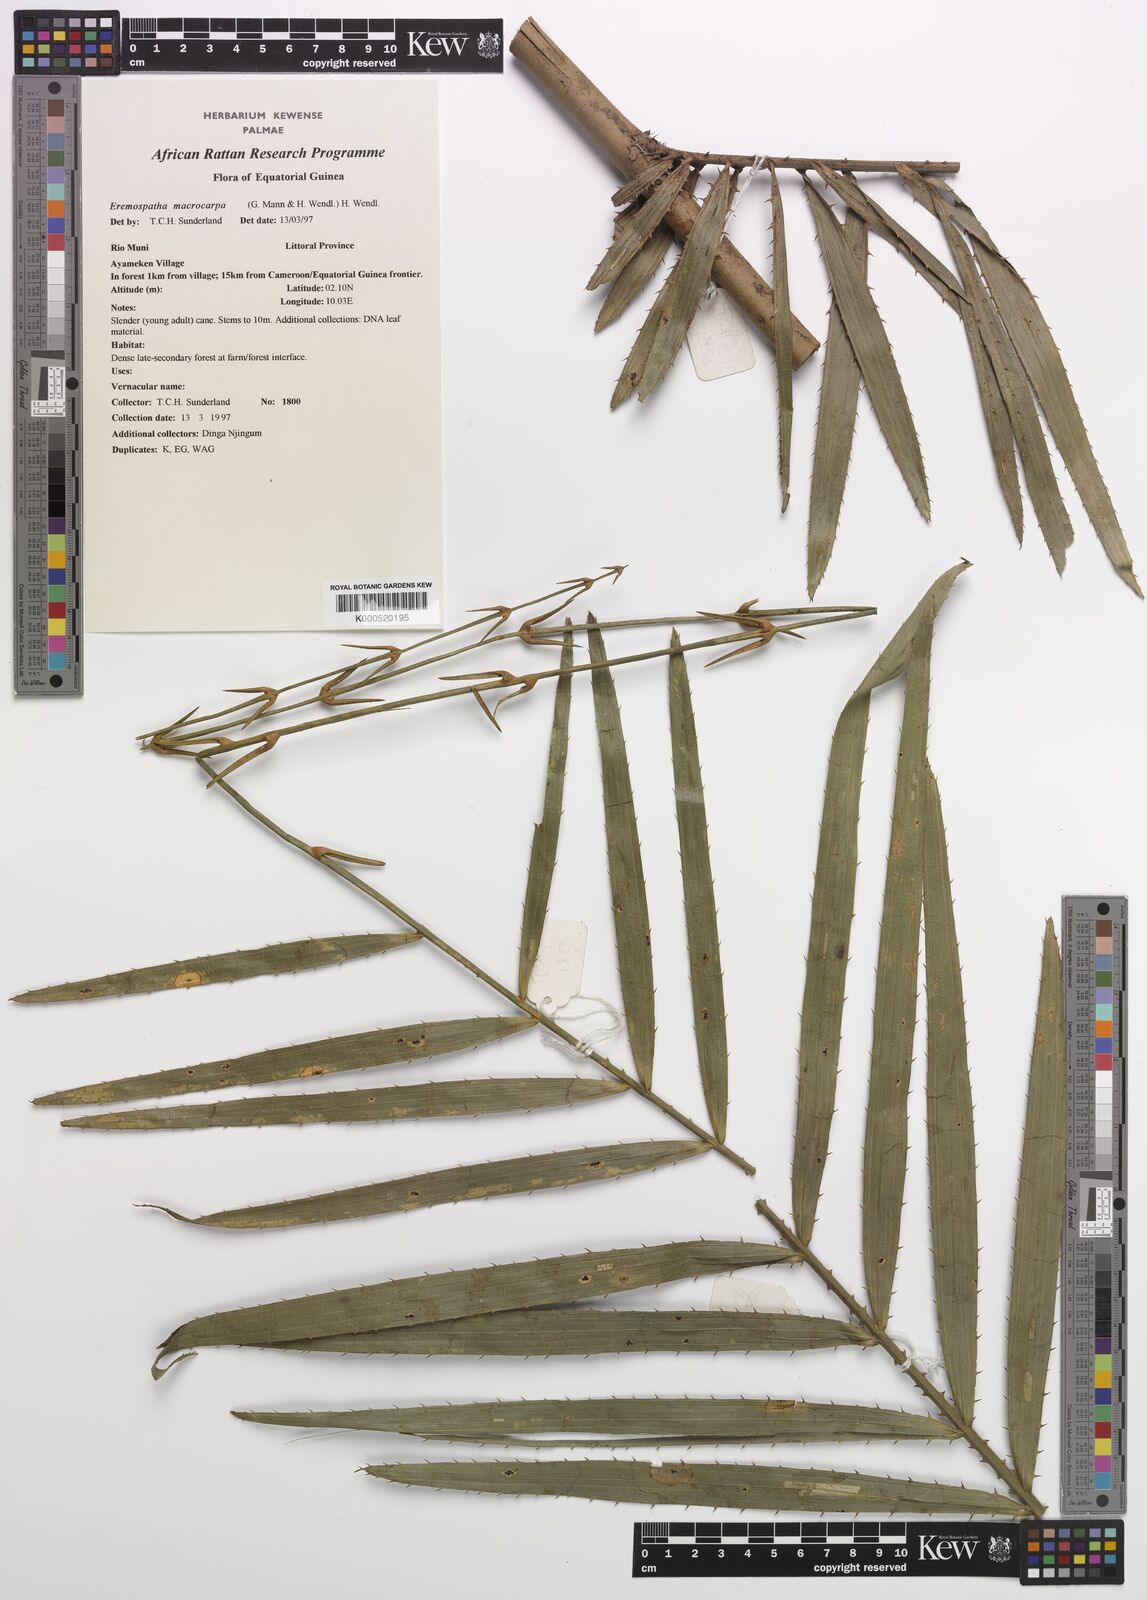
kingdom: Plantae
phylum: Tracheophyta
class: Liliopsida
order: Arecales
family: Arecaceae
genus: Eremospatha
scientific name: Eremospatha
